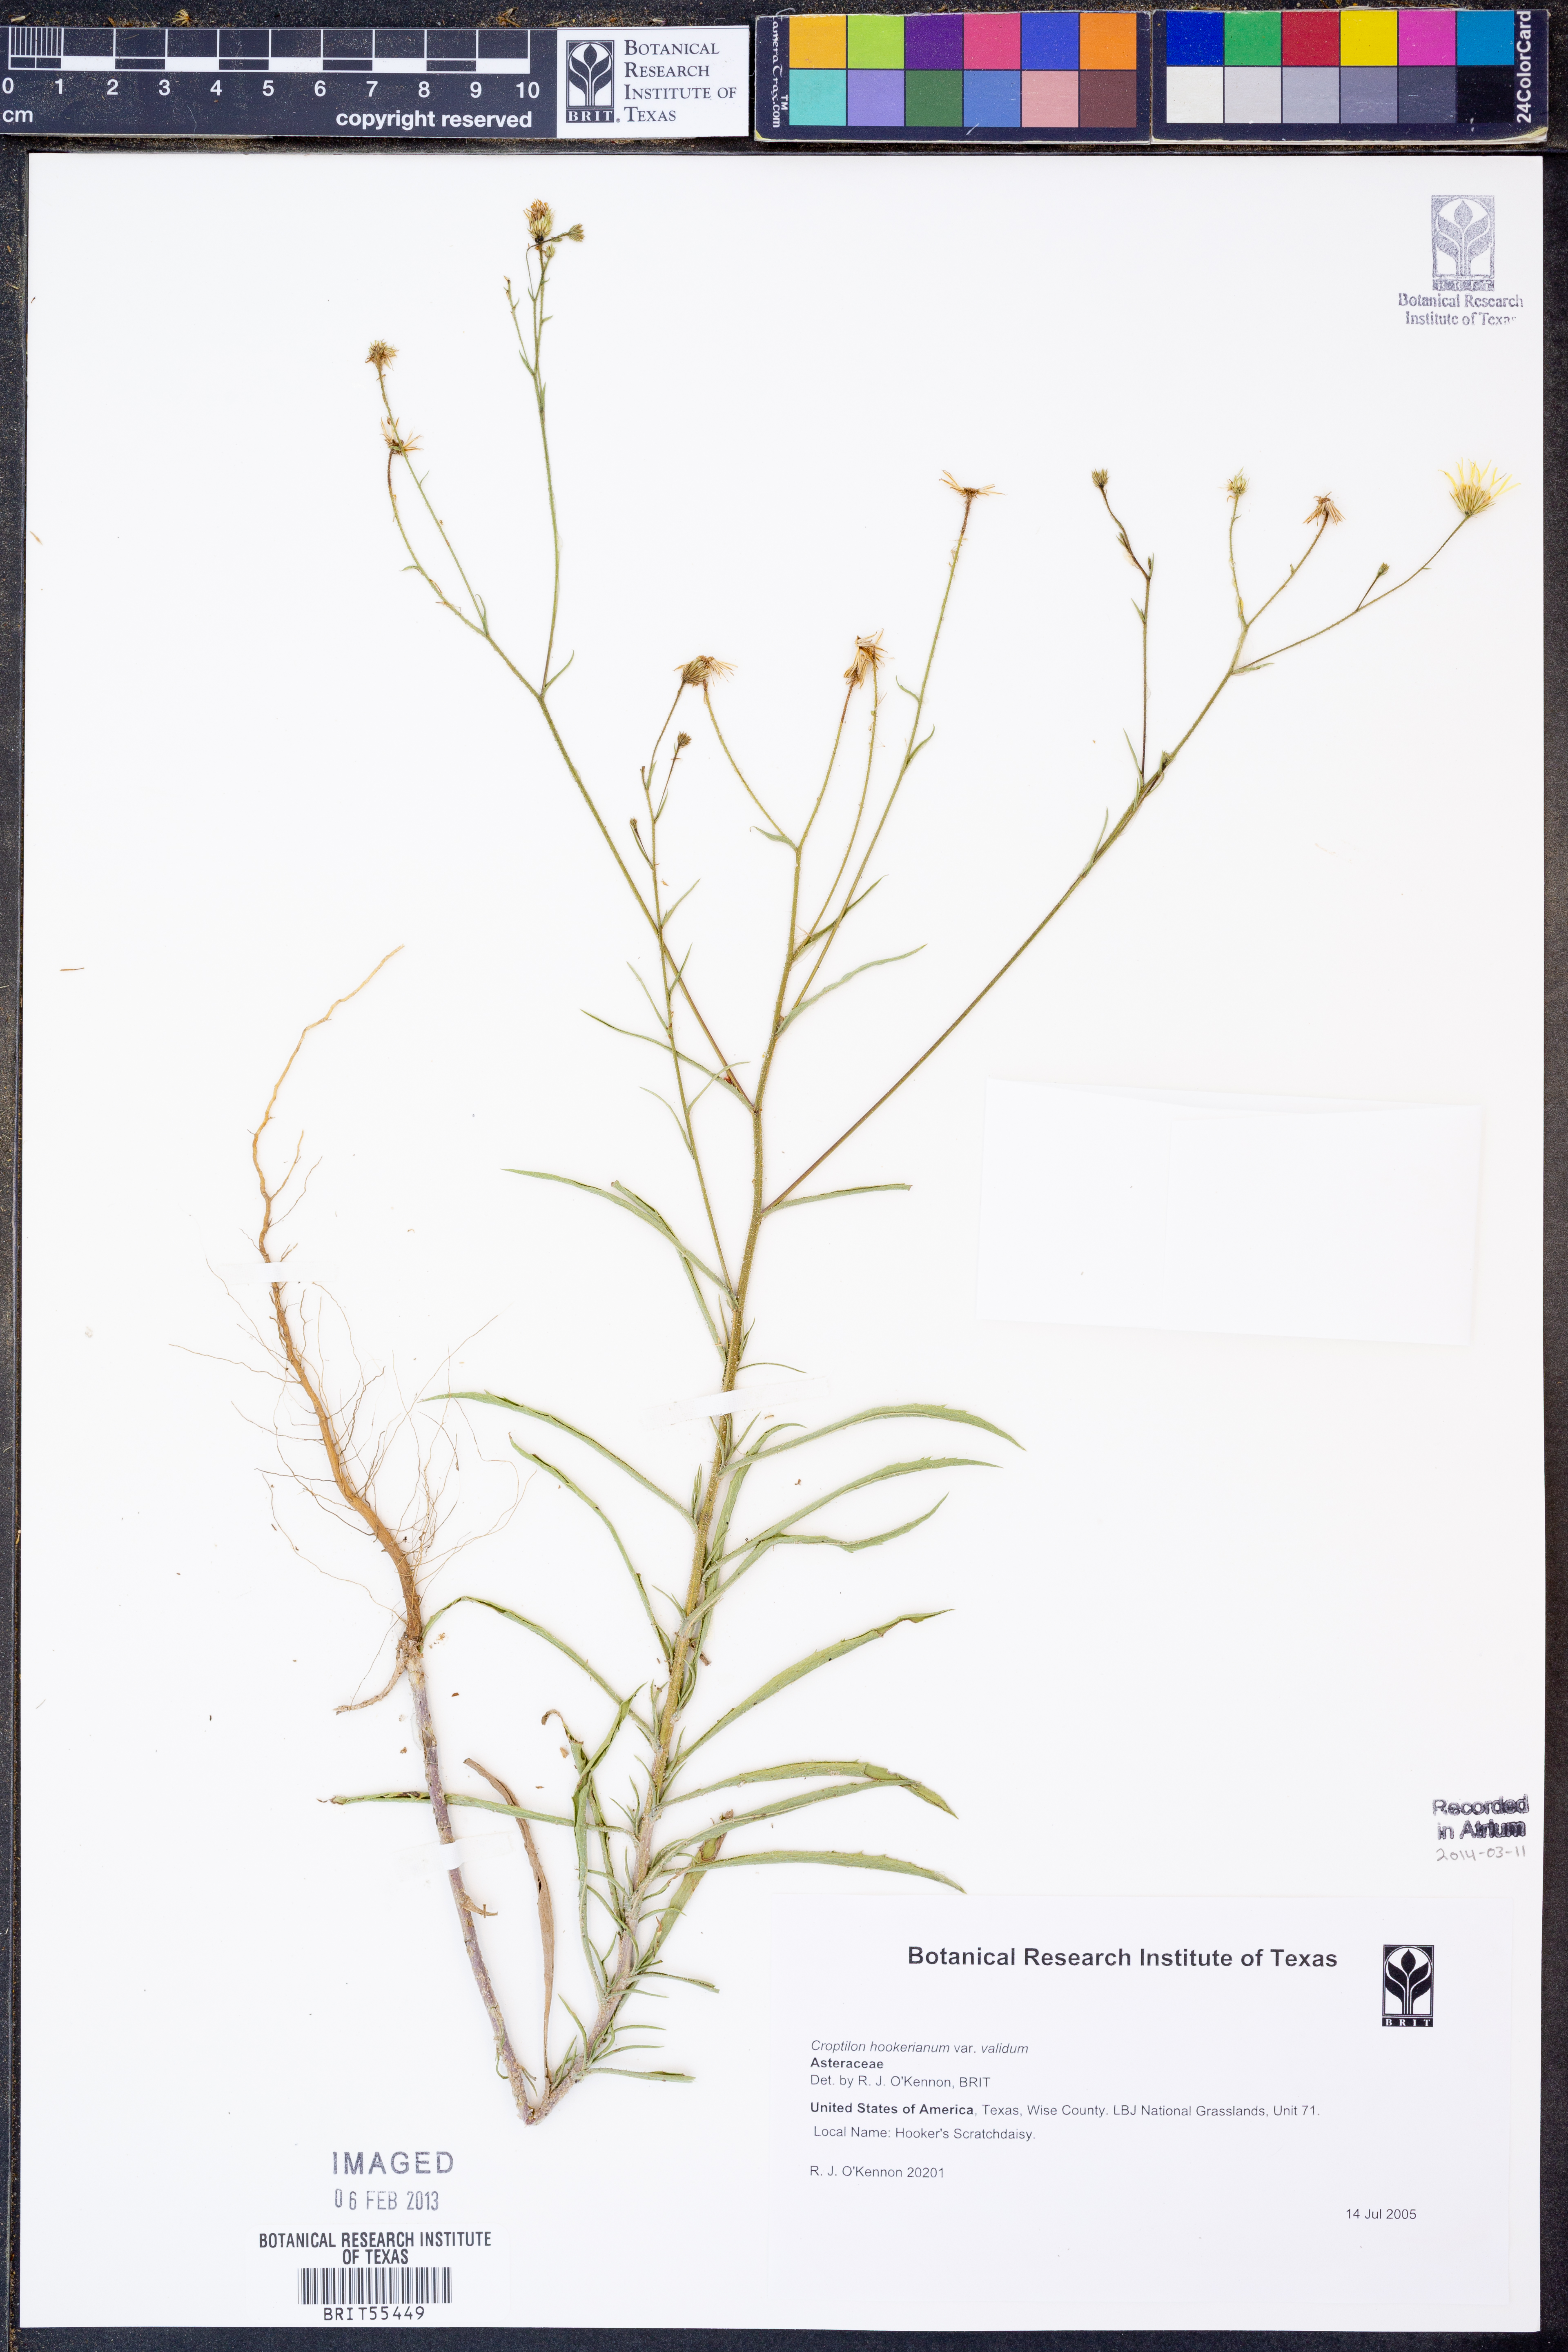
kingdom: Plantae
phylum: Tracheophyta
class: Magnoliopsida
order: Asterales
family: Asteraceae
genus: Croptilon
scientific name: Croptilon hookerianum
